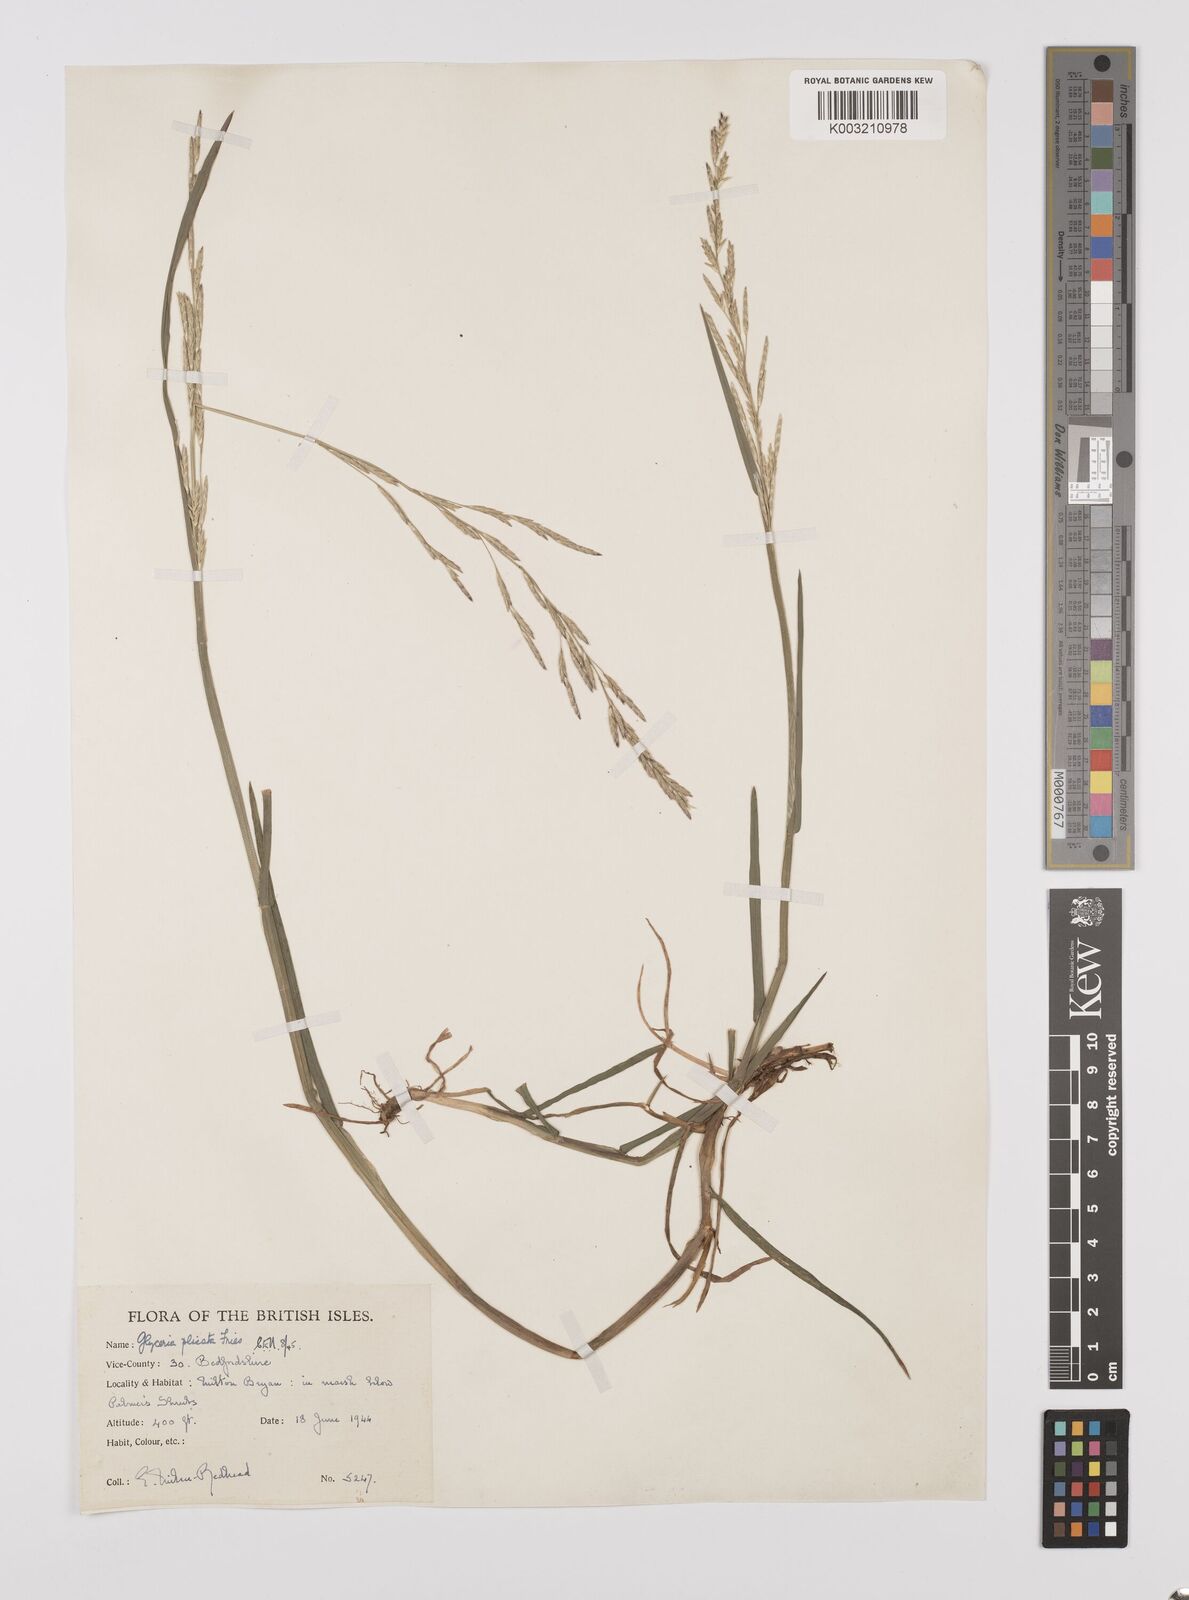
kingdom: Plantae
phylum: Tracheophyta
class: Liliopsida
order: Poales
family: Poaceae
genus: Glyceria
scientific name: Glyceria notata
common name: Plicate sweet-grass
